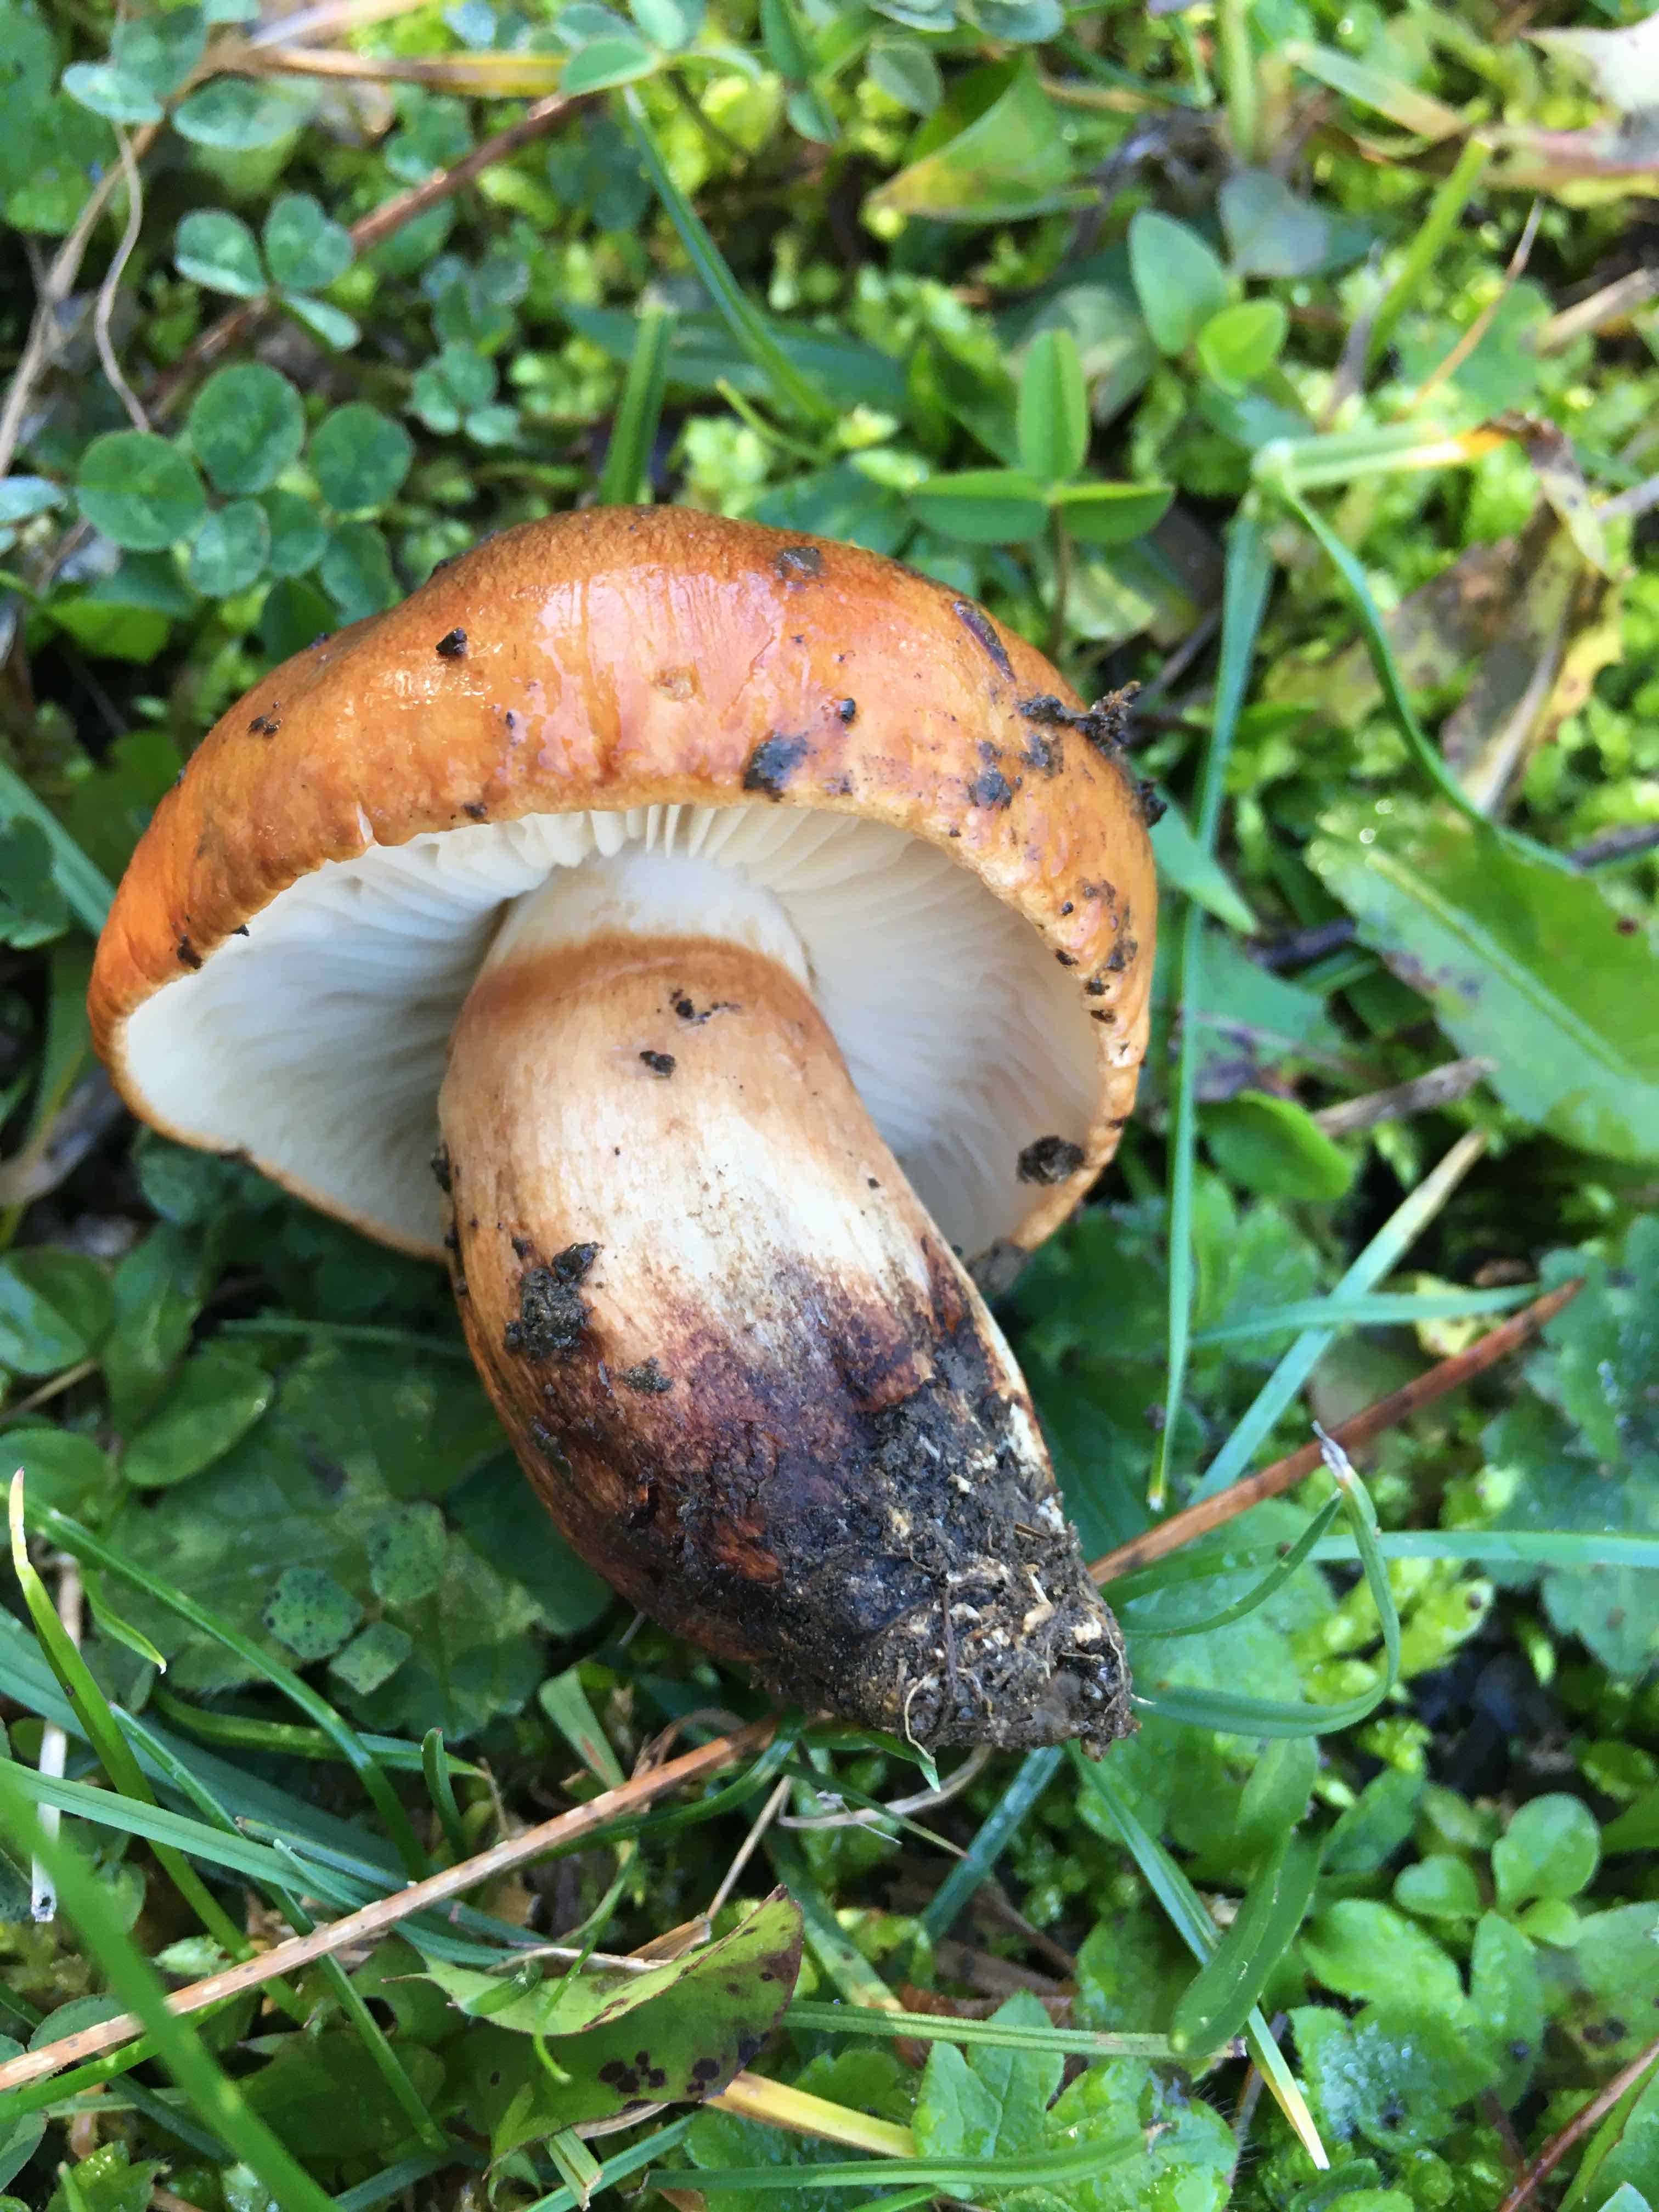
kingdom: Fungi
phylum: Basidiomycota
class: Agaricomycetes
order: Agaricales
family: Tricholomataceae
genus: Tricholoma
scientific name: Tricholoma fracticum
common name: hvidhalset ridderhat
